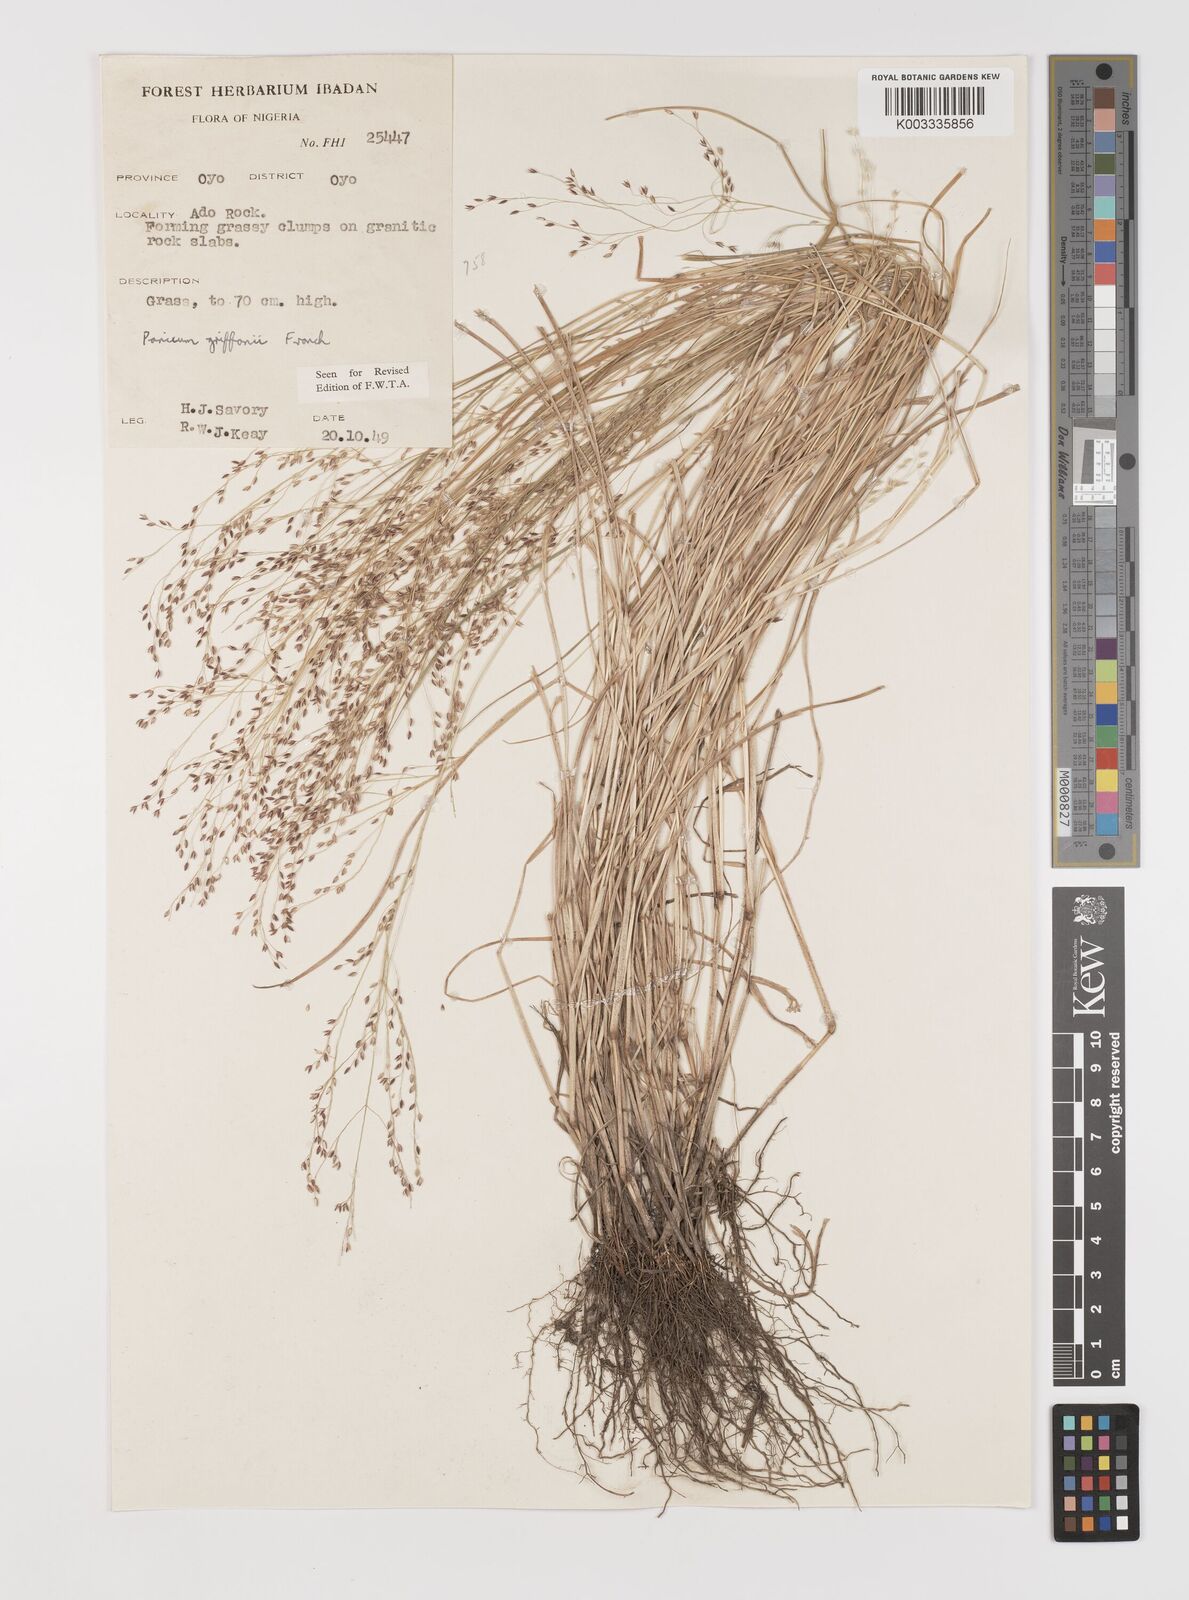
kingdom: Plantae
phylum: Tracheophyta
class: Liliopsida
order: Poales
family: Poaceae
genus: Panicum
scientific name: Panicum griffonii
